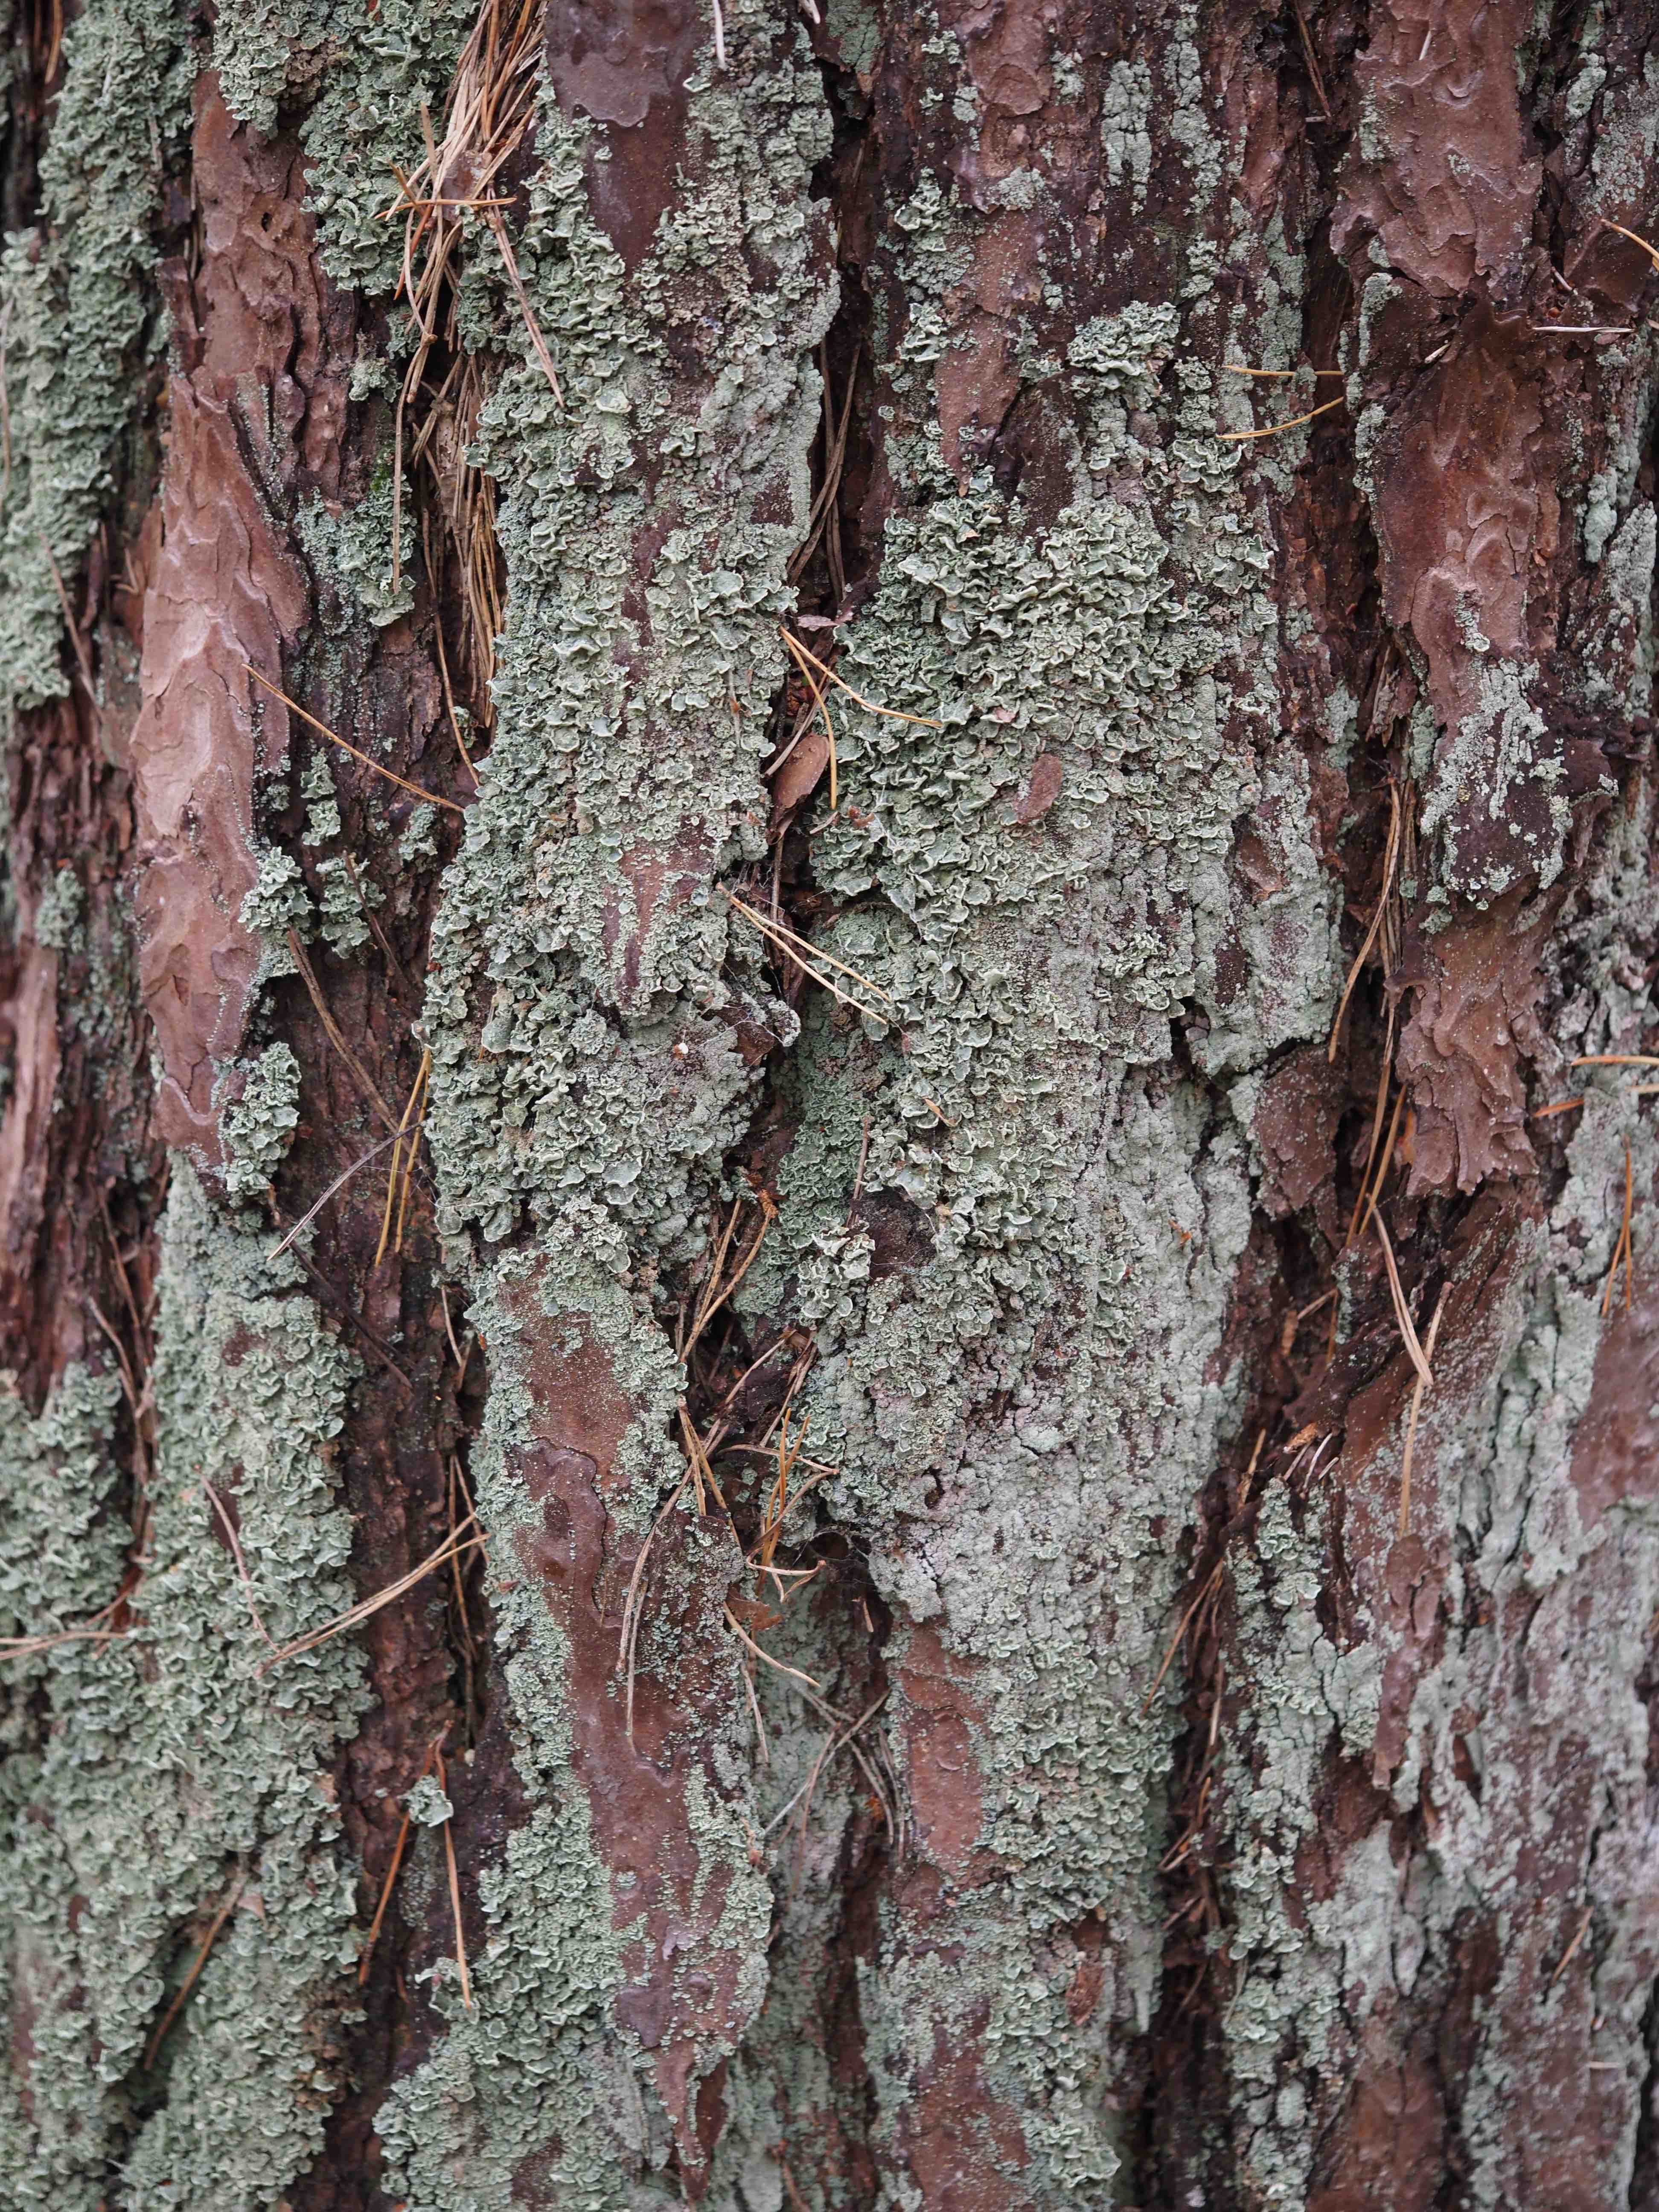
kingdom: Fungi
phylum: Ascomycota
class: Lecanoromycetes
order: Lecanorales
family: Cladoniaceae
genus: Cladonia
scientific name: Cladonia digitata
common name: finger-bægerlav
